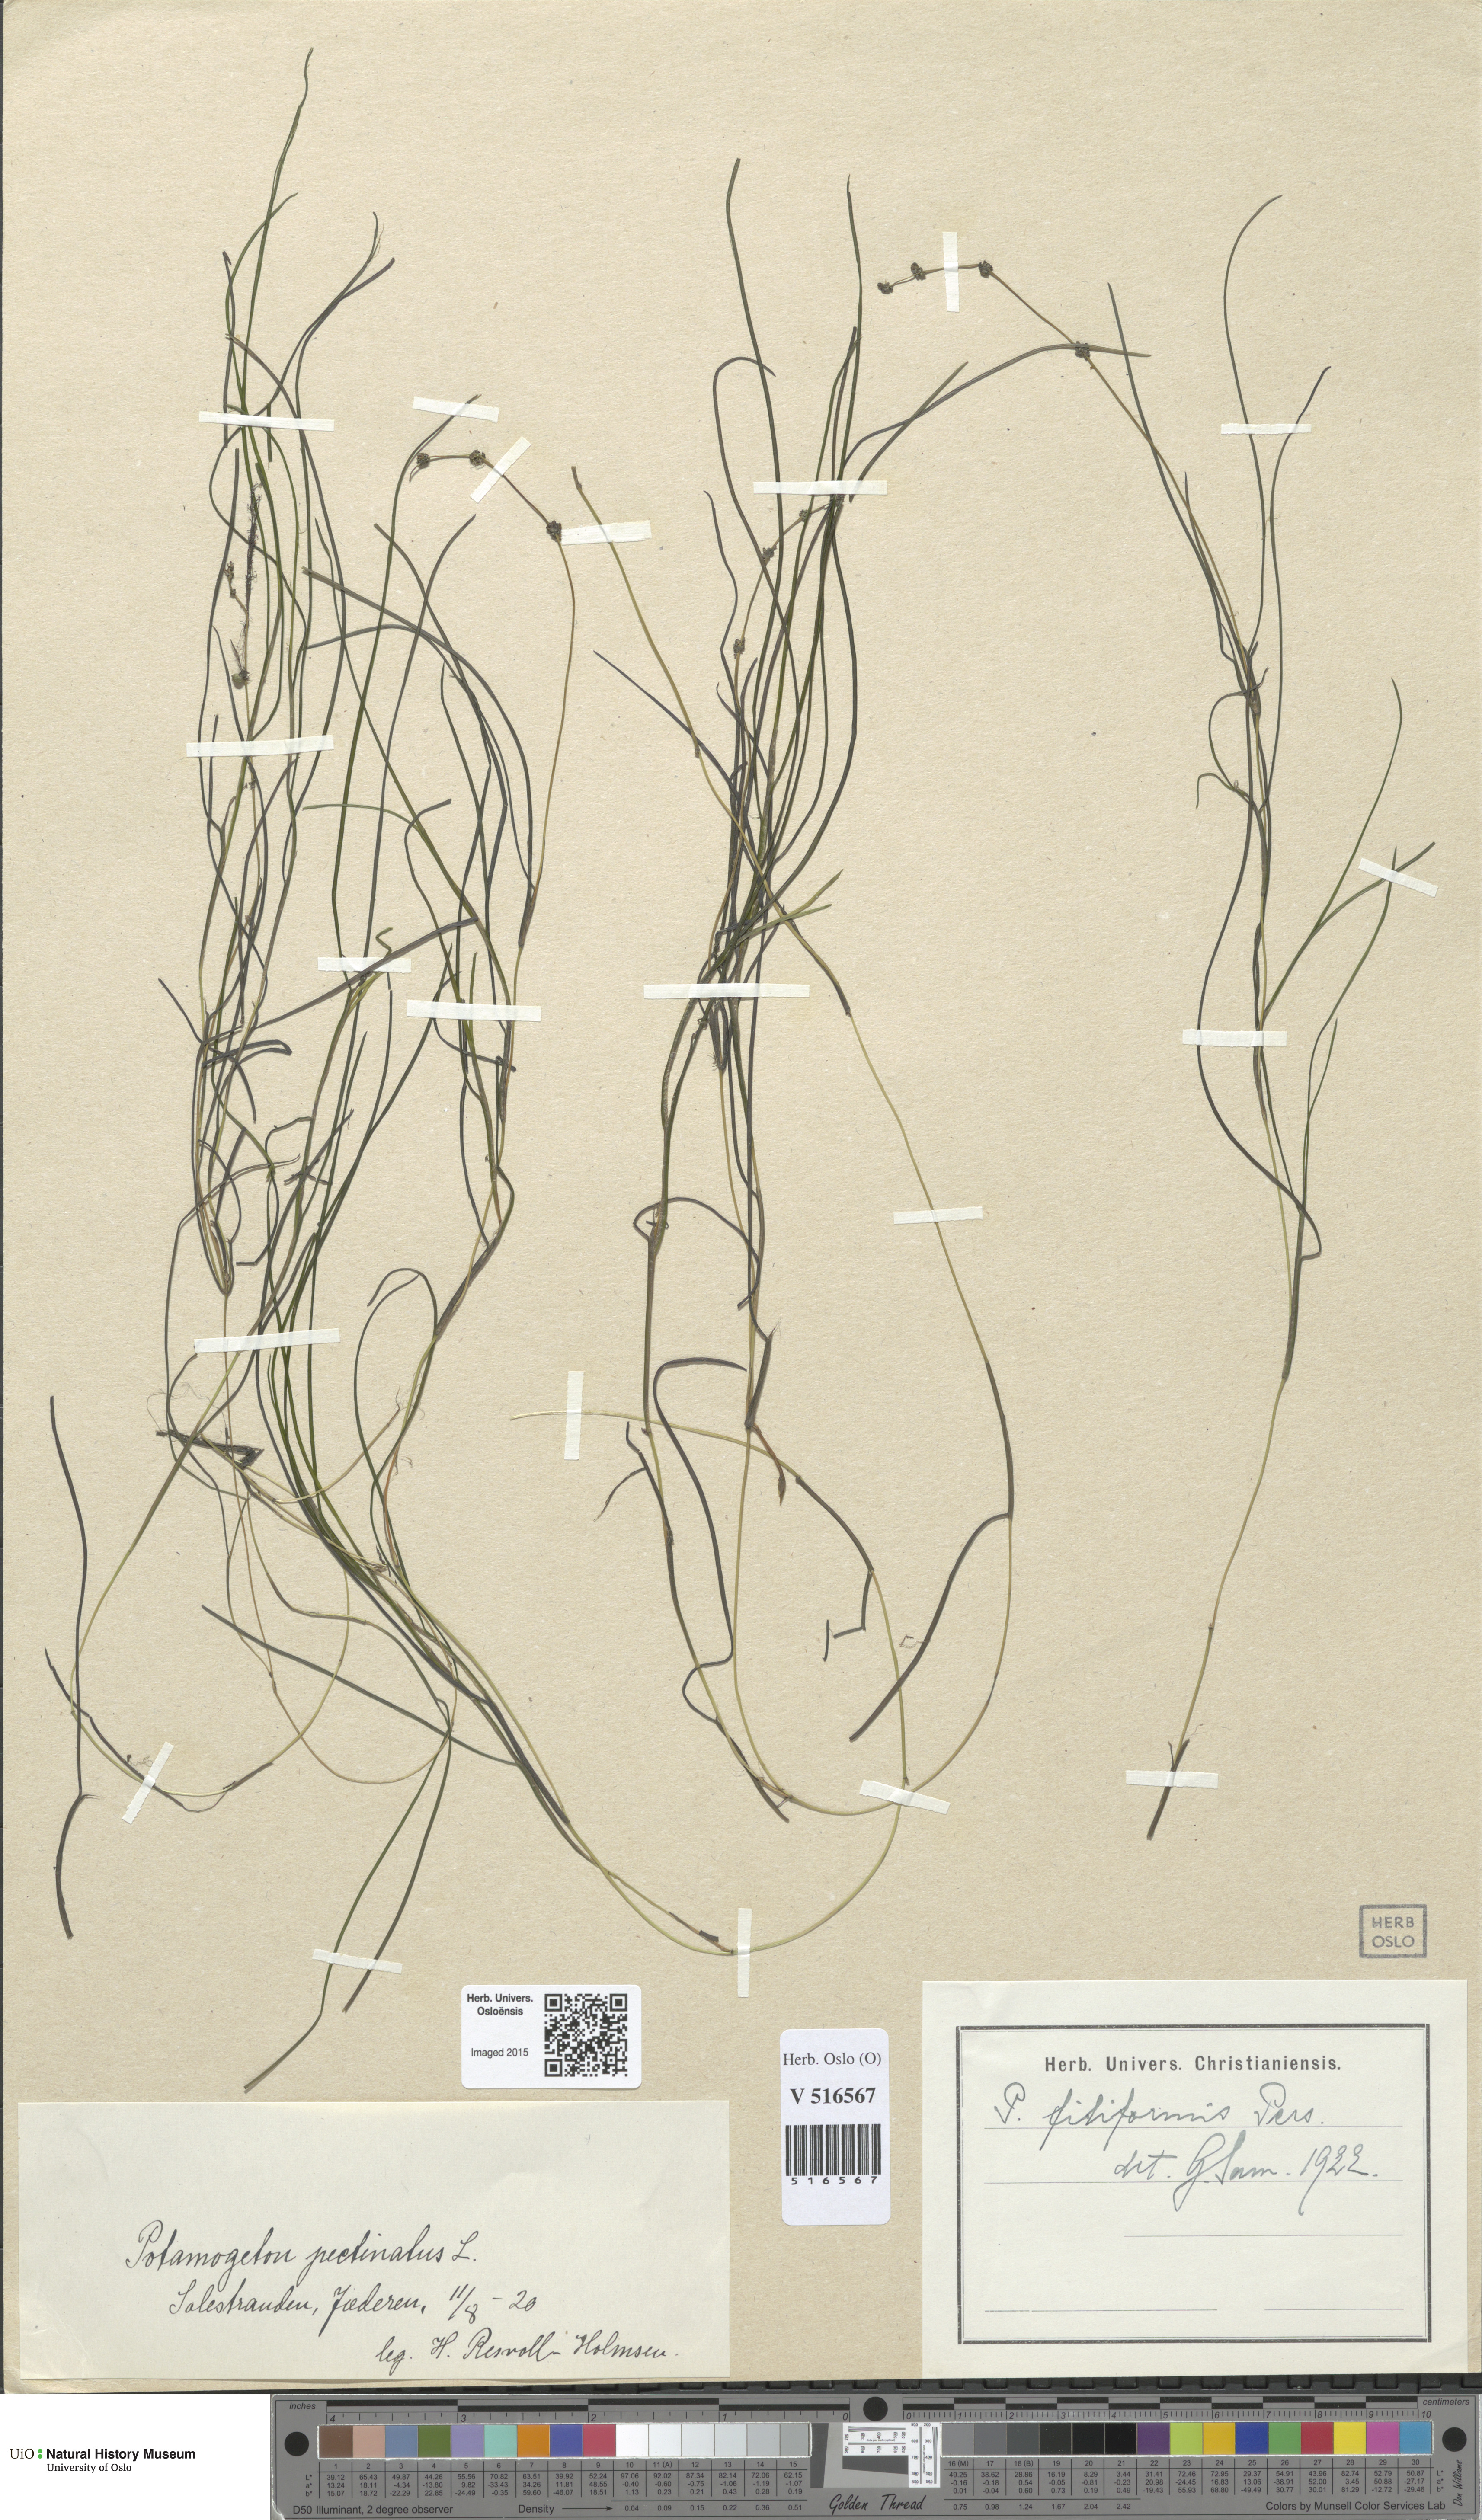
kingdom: Plantae
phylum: Tracheophyta
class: Liliopsida
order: Alismatales
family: Potamogetonaceae
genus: Stuckenia
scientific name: Stuckenia filiformis
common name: Alpine thread-leaved pondweed
